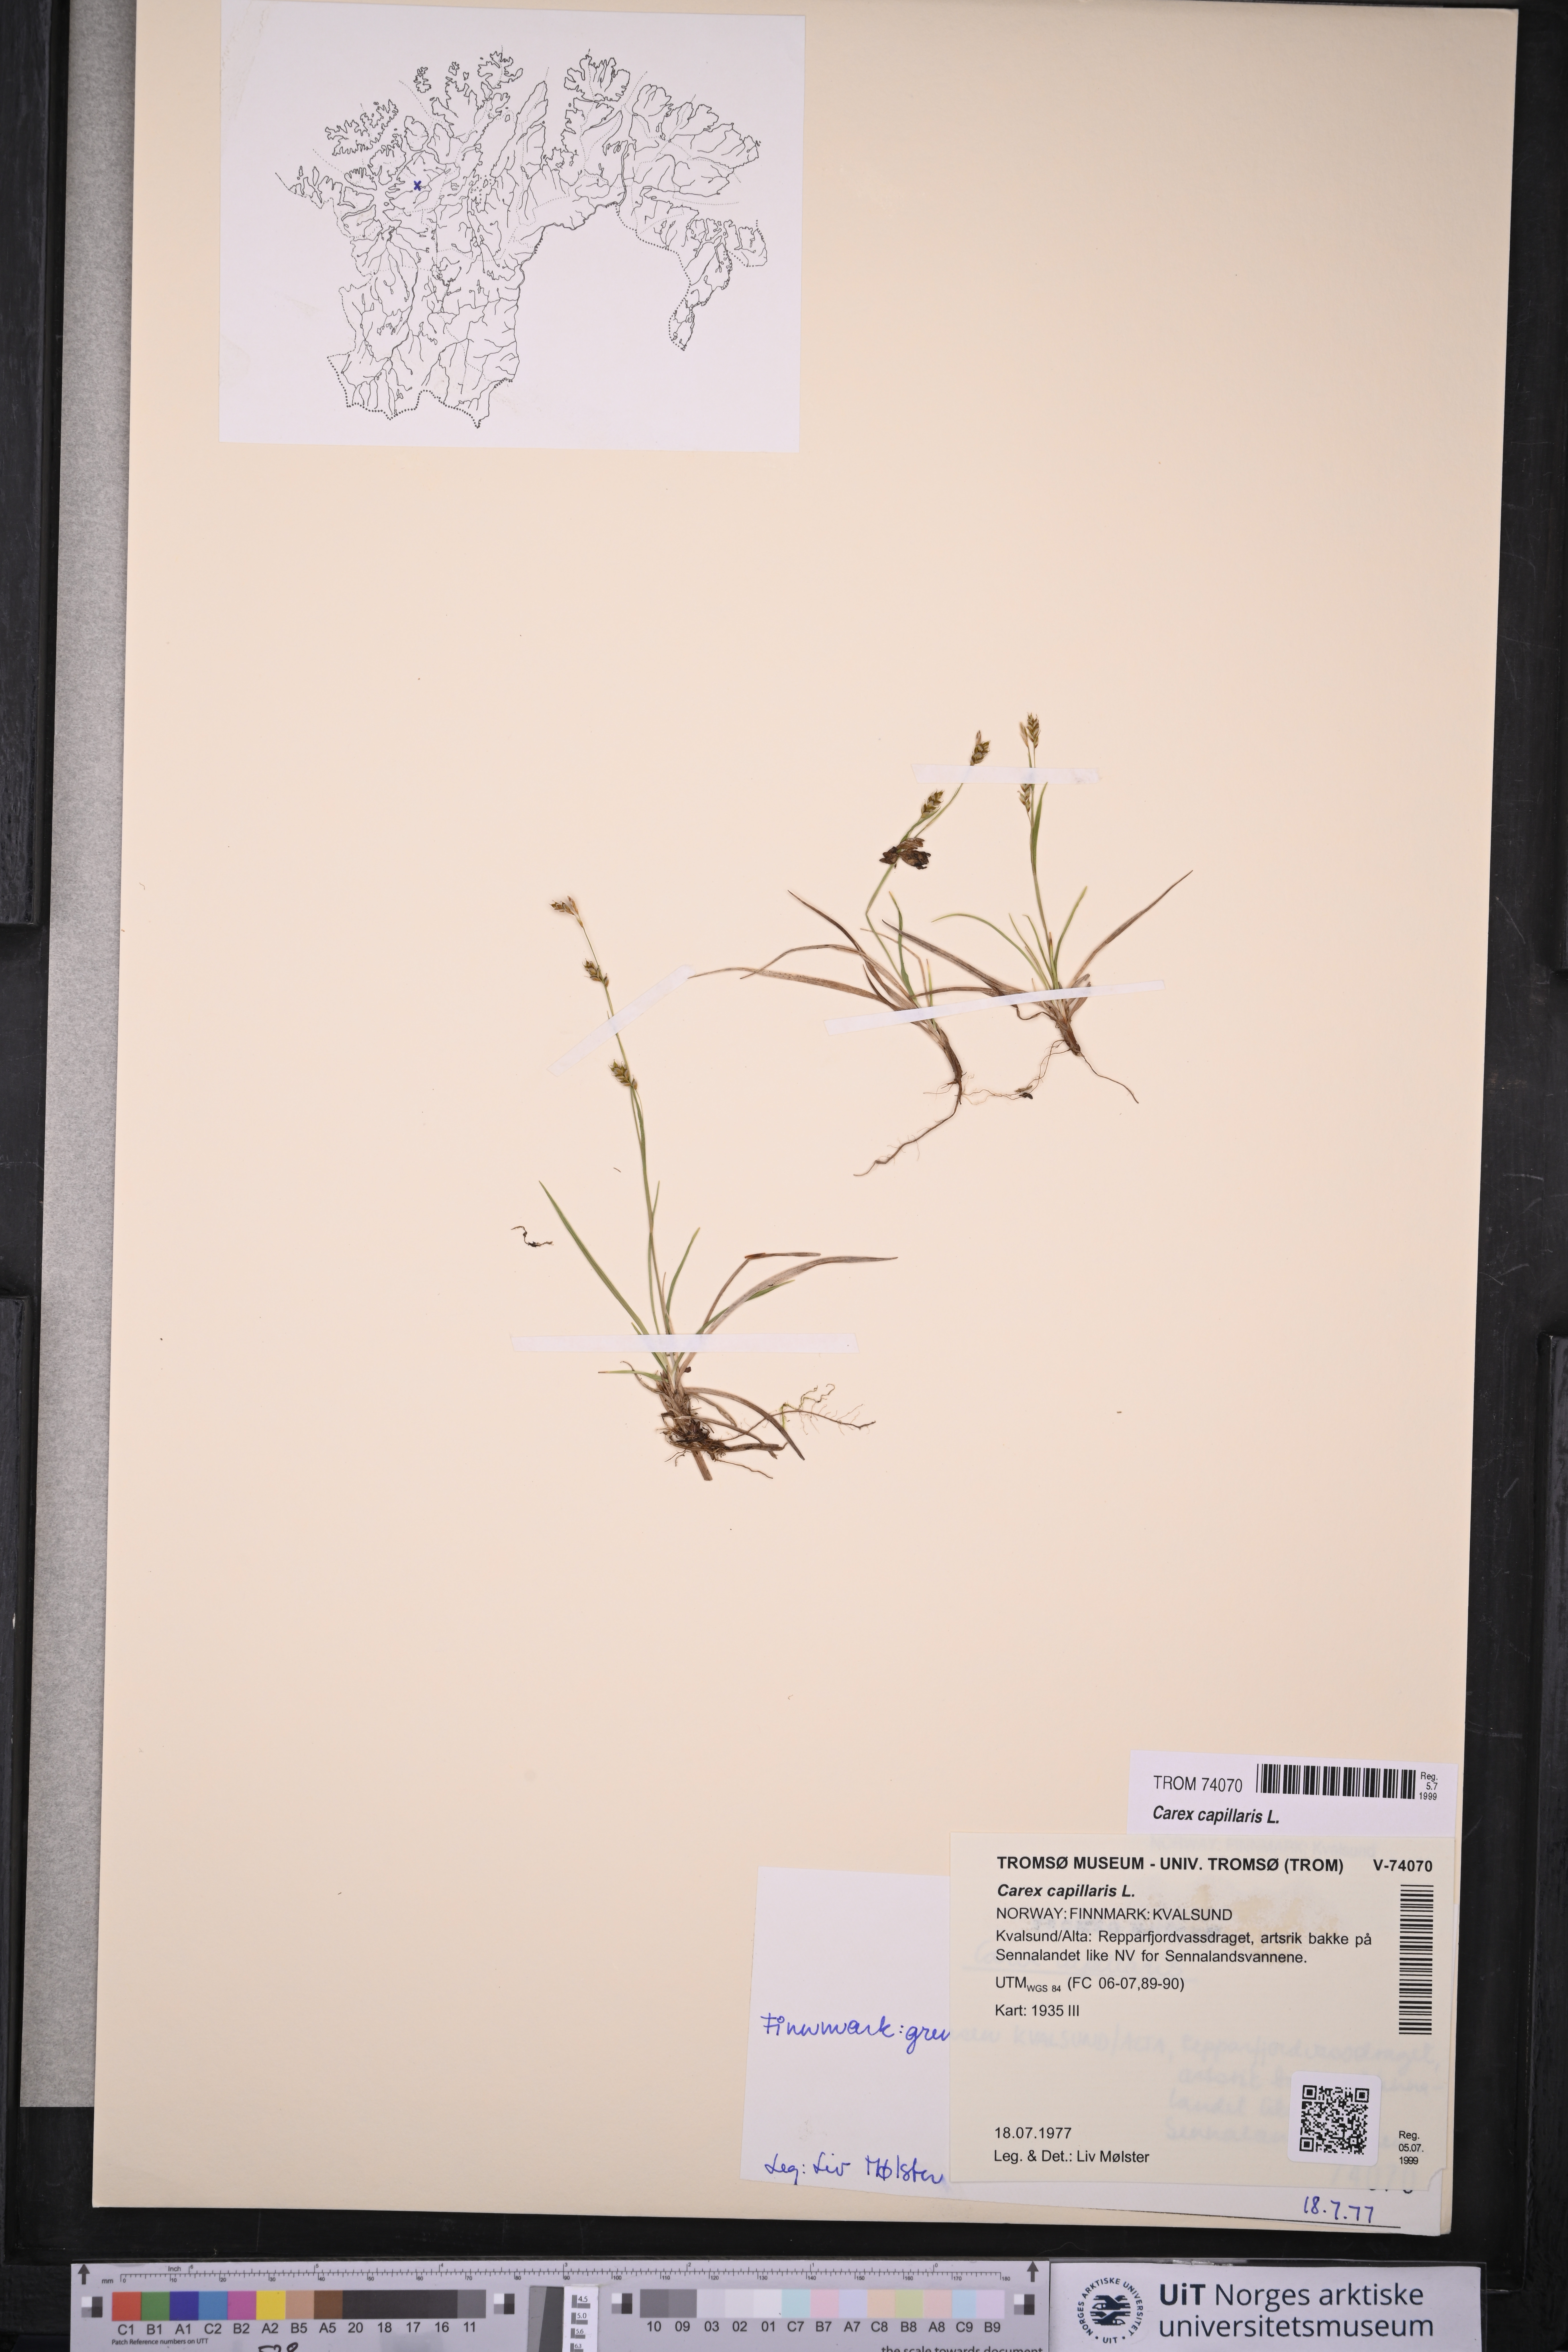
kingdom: Plantae
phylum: Tracheophyta
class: Liliopsida
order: Poales
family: Cyperaceae
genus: Carex
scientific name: Carex capillaris
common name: Hair sedge
